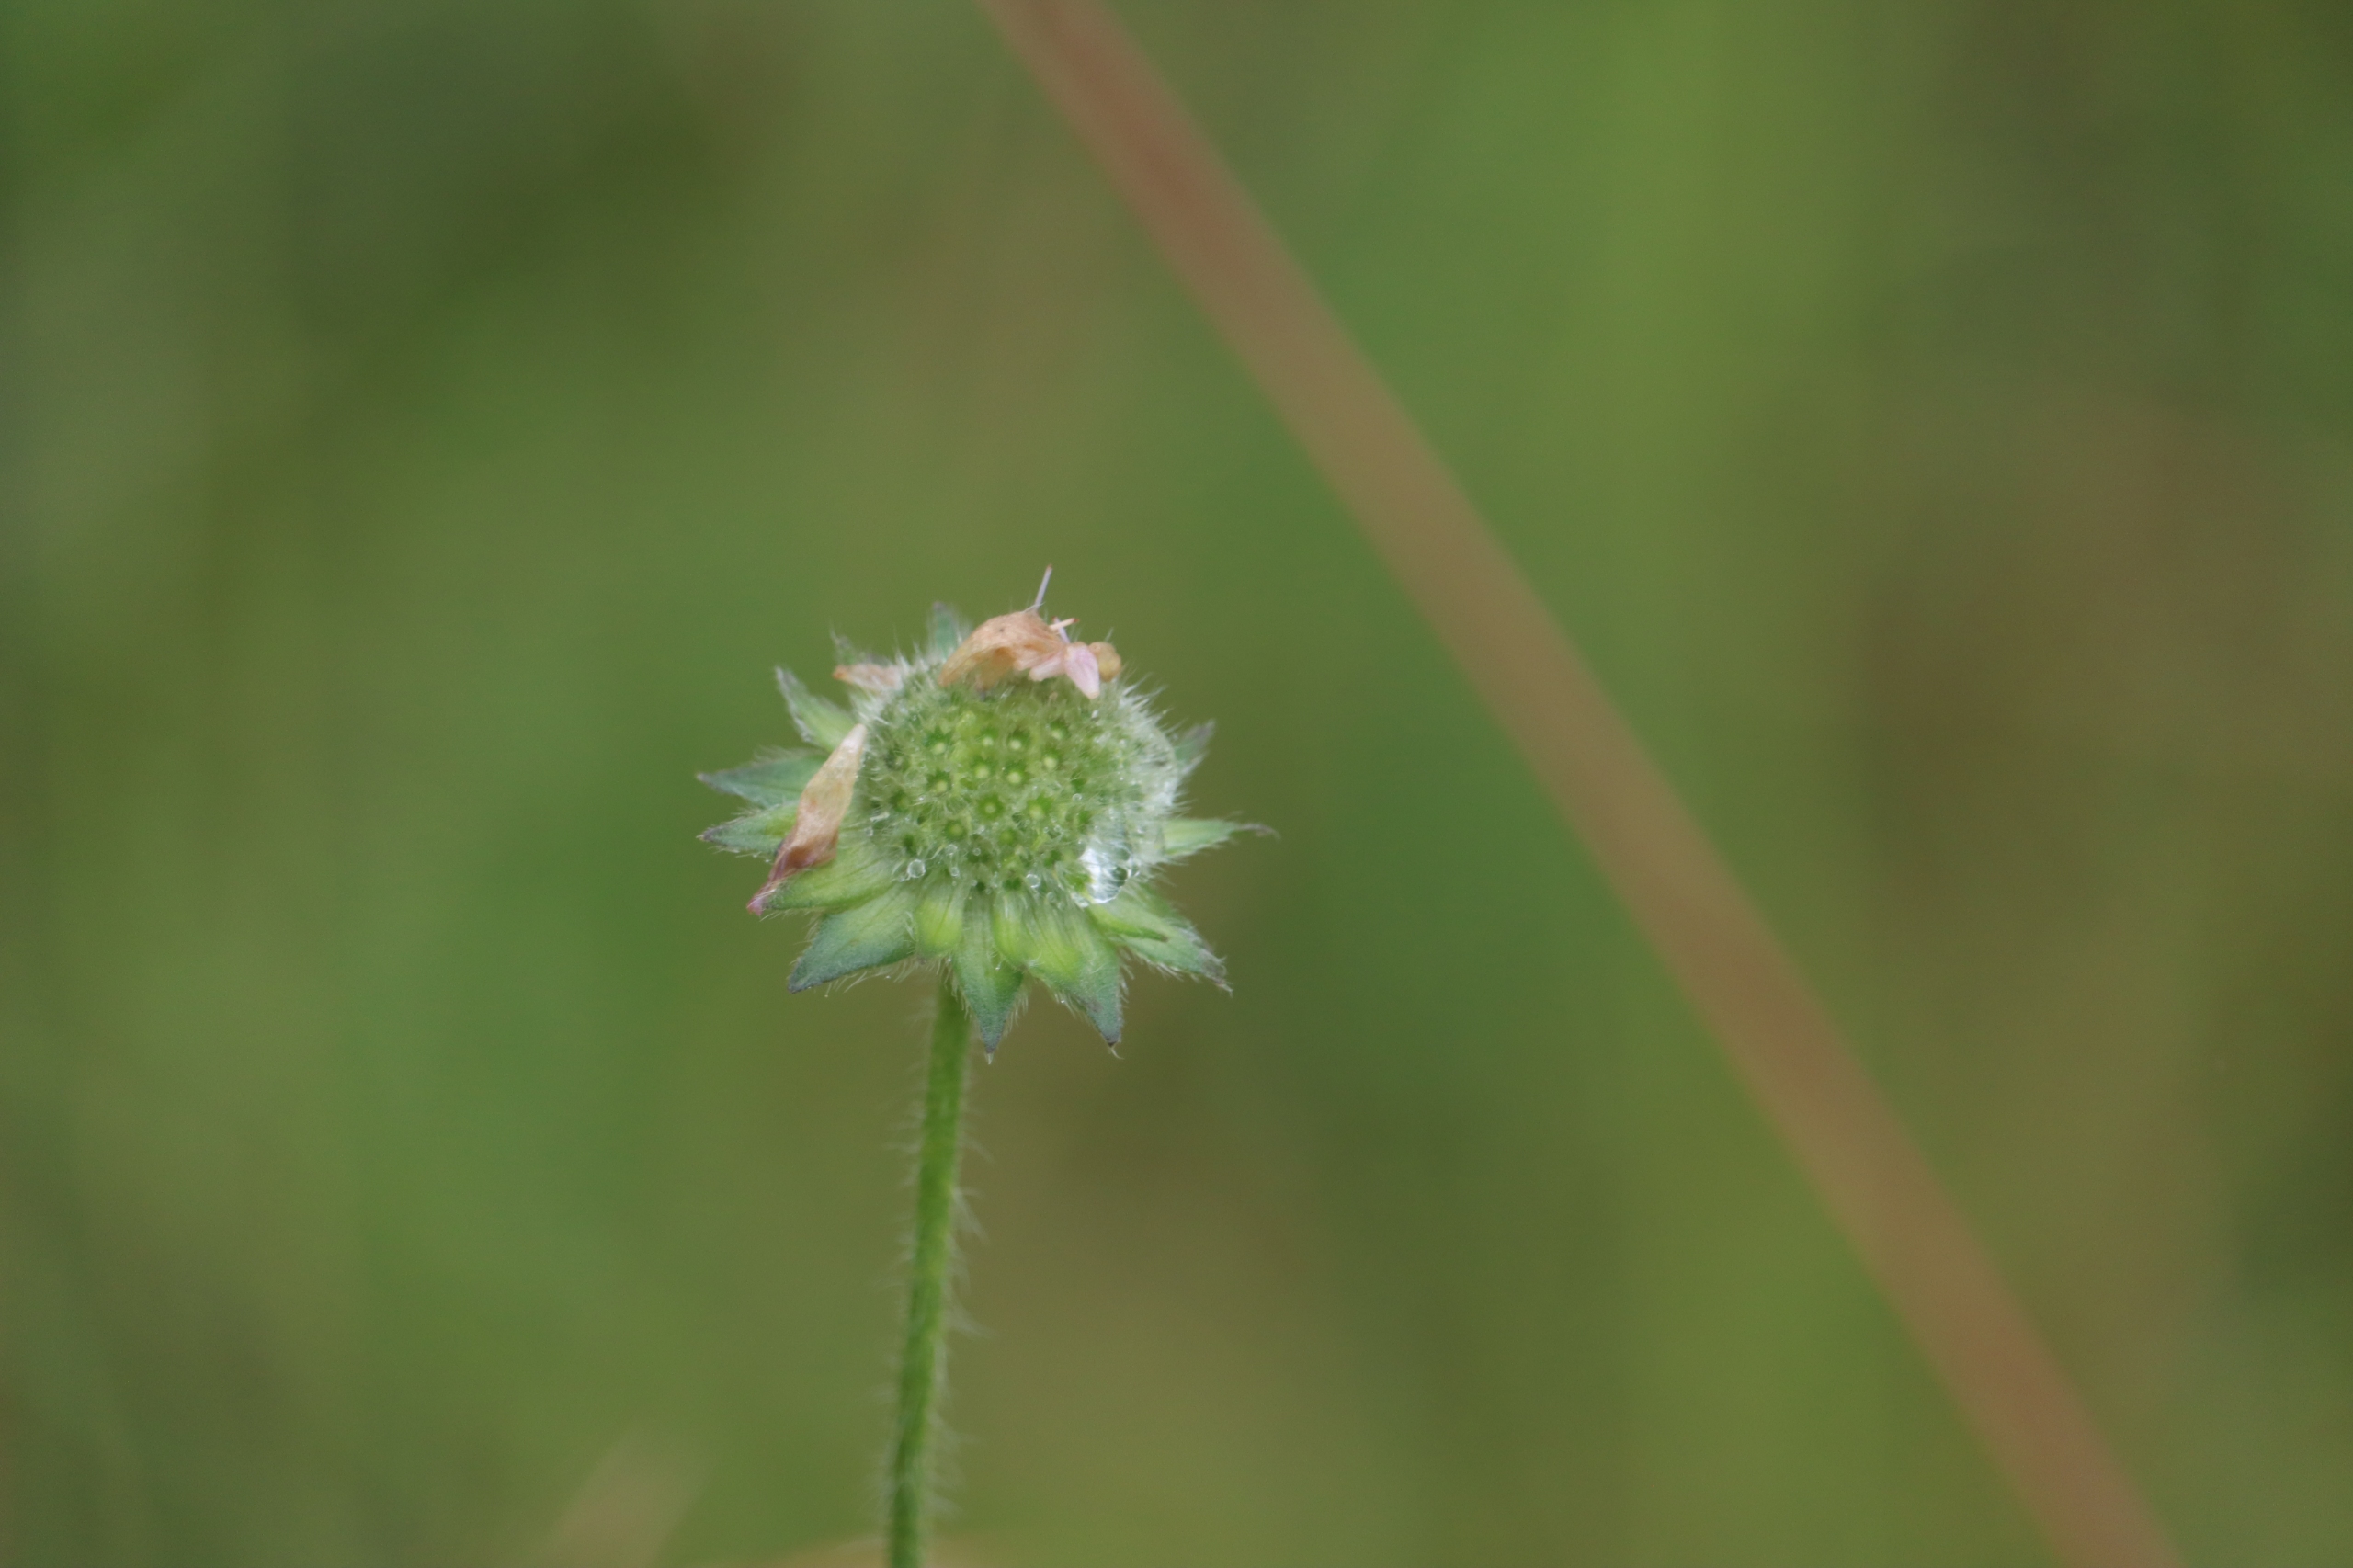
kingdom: Plantae
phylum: Tracheophyta
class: Magnoliopsida
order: Dipsacales
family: Caprifoliaceae
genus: Knautia
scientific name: Knautia arvensis
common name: Blåhat
